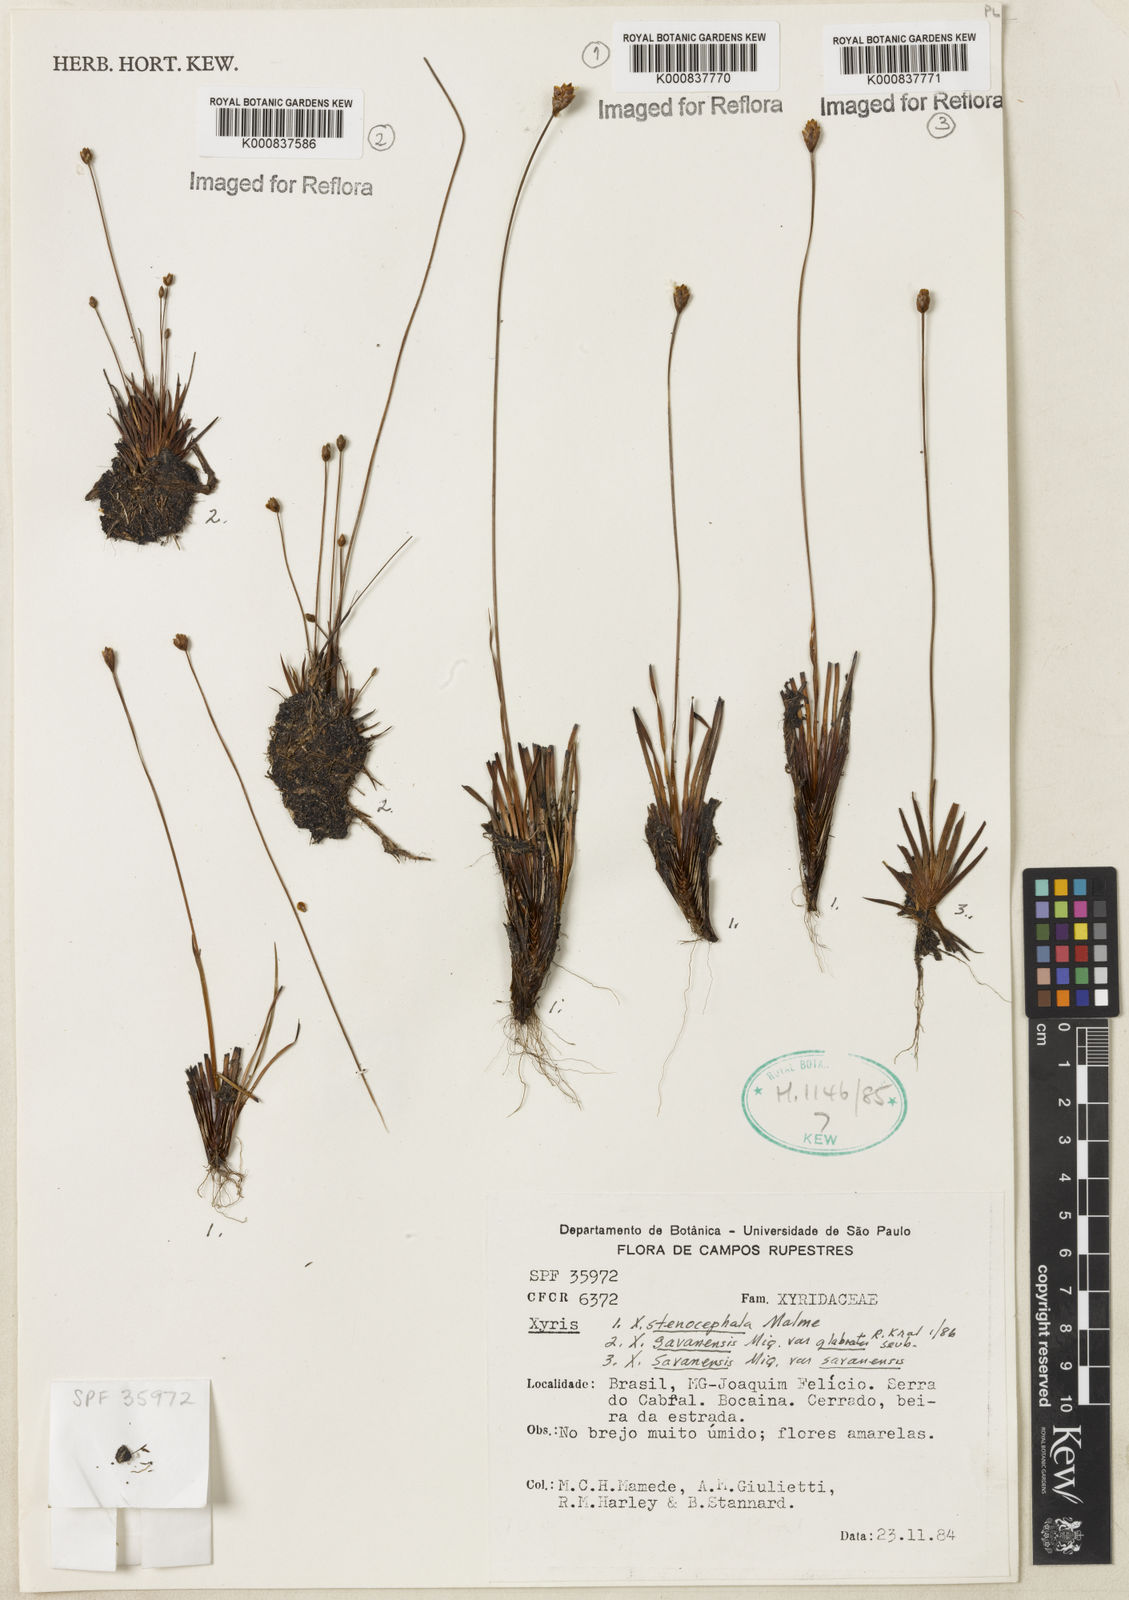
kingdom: Plantae
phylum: Tracheophyta
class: Liliopsida
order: Poales
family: Xyridaceae
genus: Xyris
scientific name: Xyris stenocephala
